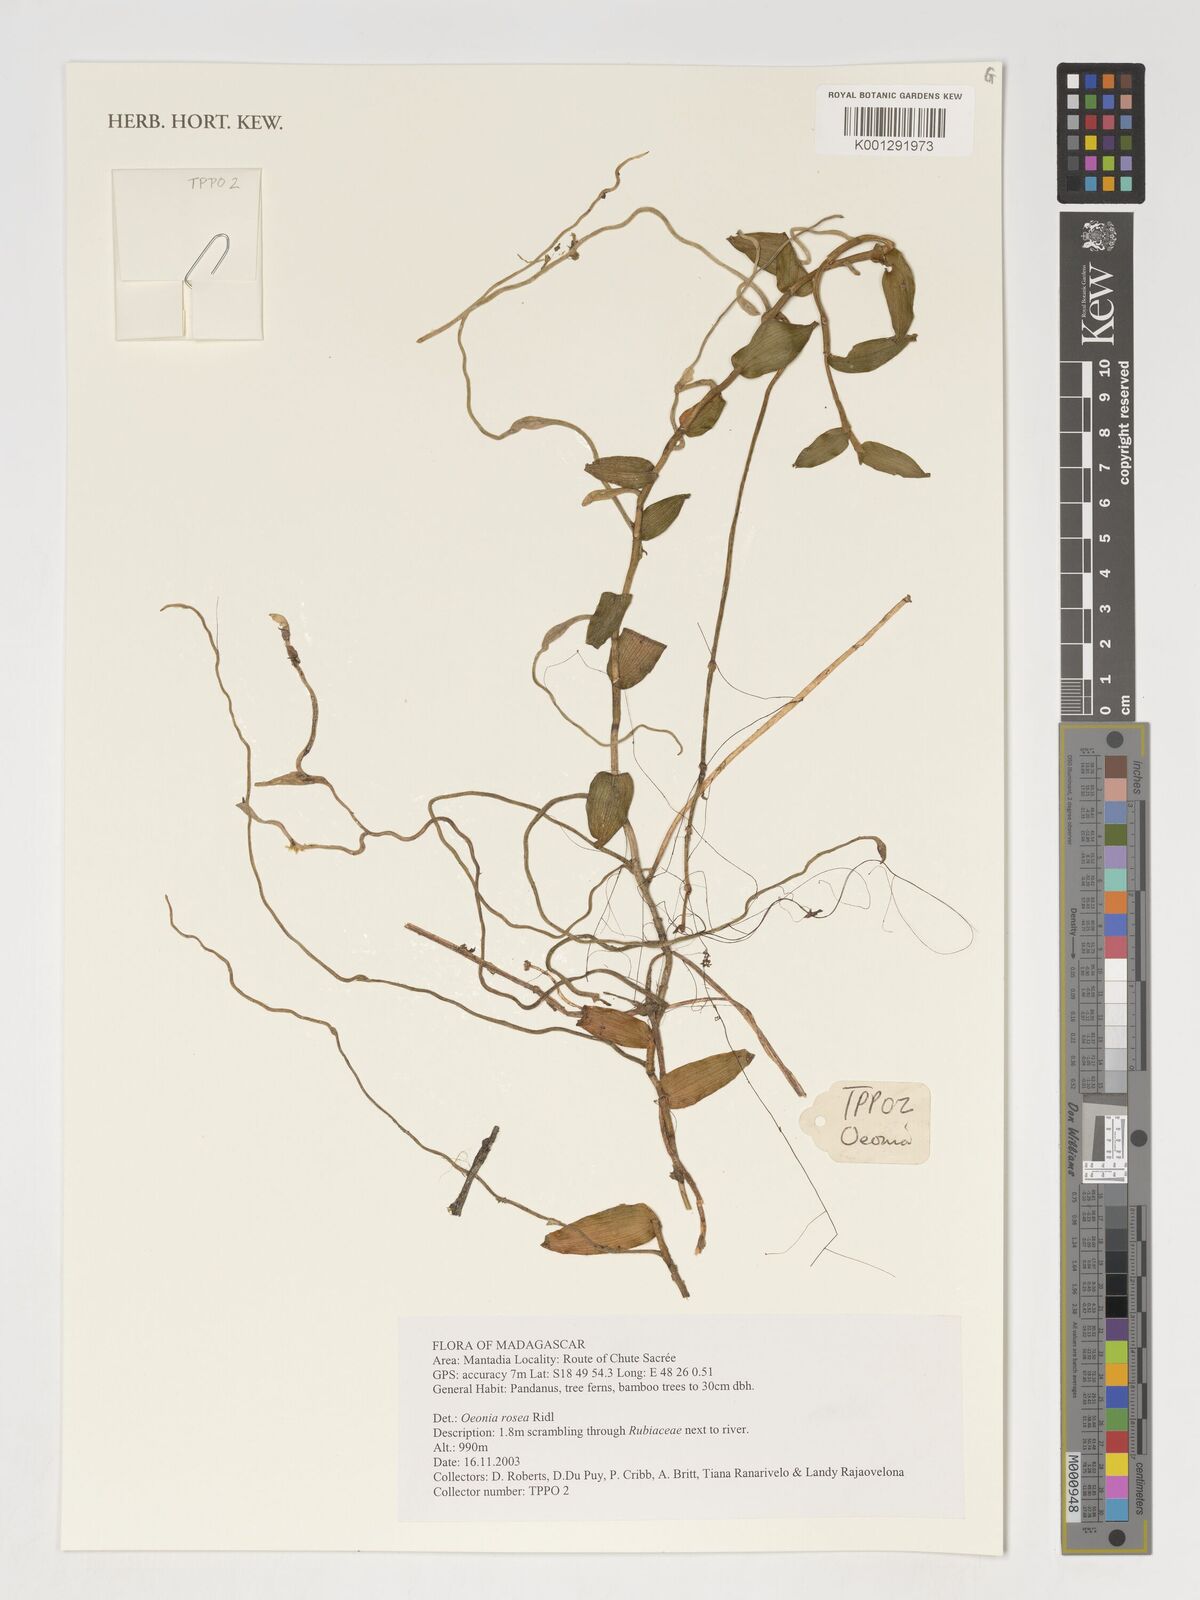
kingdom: Plantae
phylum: Tracheophyta
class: Liliopsida
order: Asparagales
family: Orchidaceae
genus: Oeonia
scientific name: Oeonia rosea
